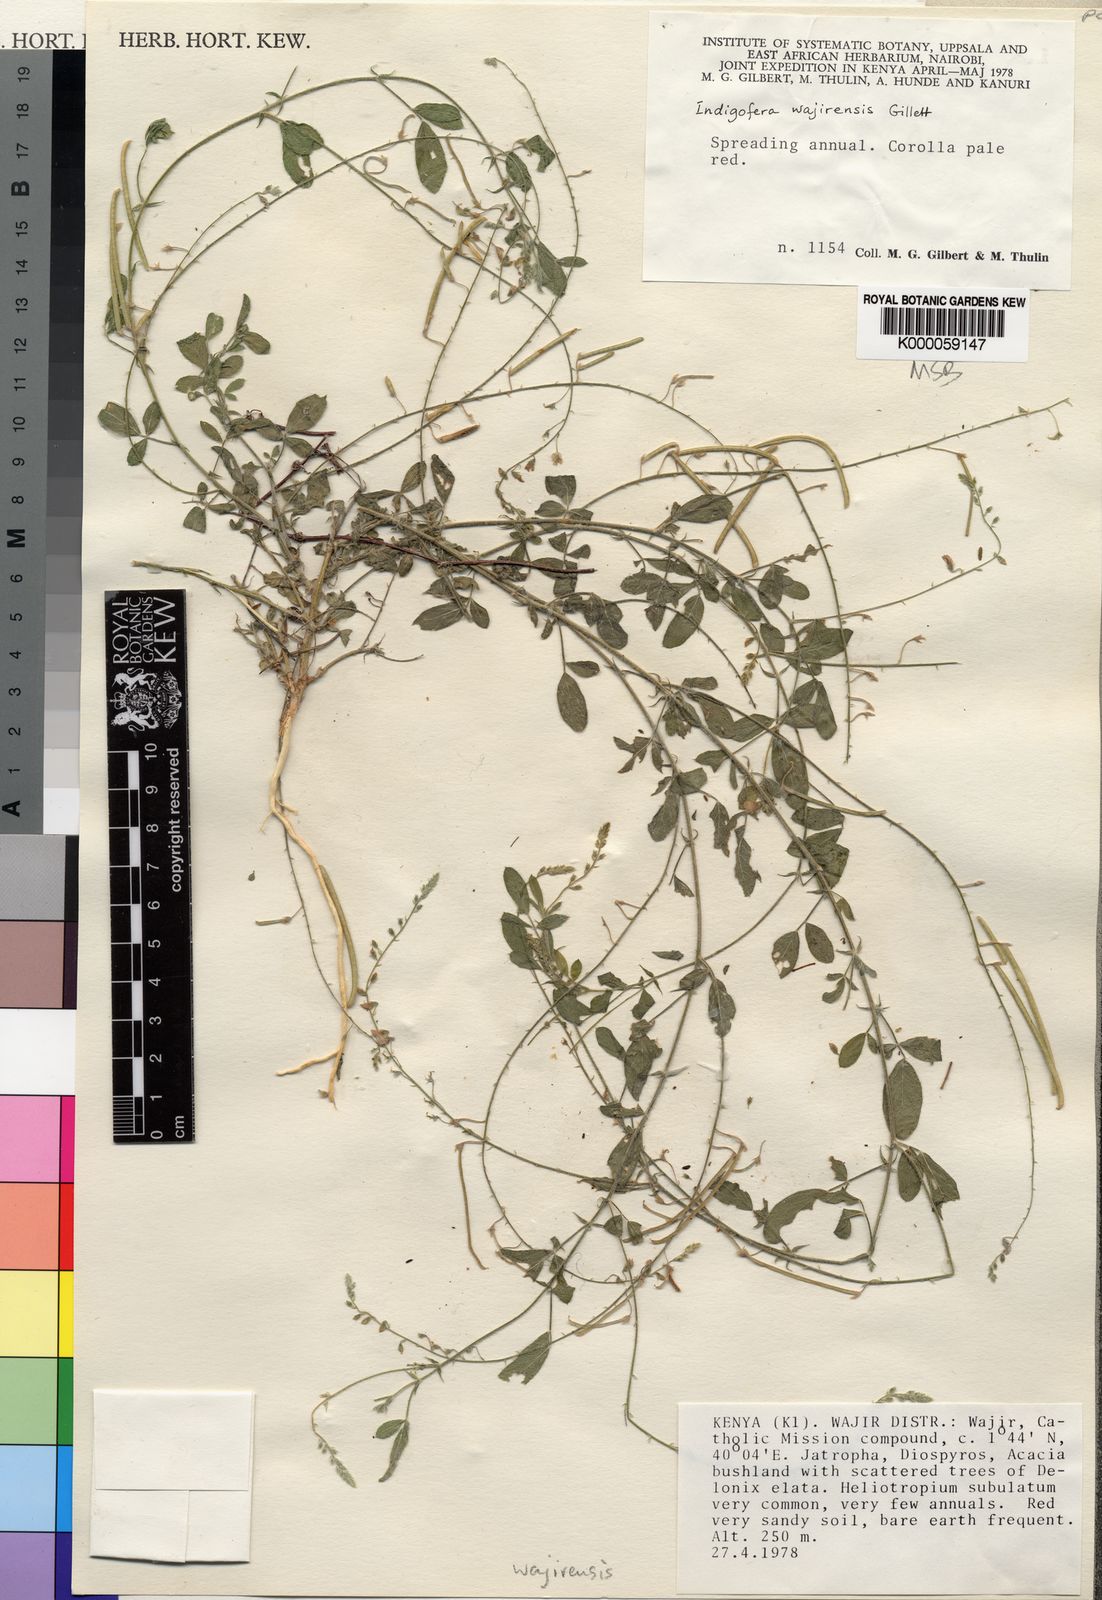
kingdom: Plantae
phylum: Tracheophyta
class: Magnoliopsida
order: Fabales
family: Fabaceae
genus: Microcharis
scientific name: Microcharis wajirensis
